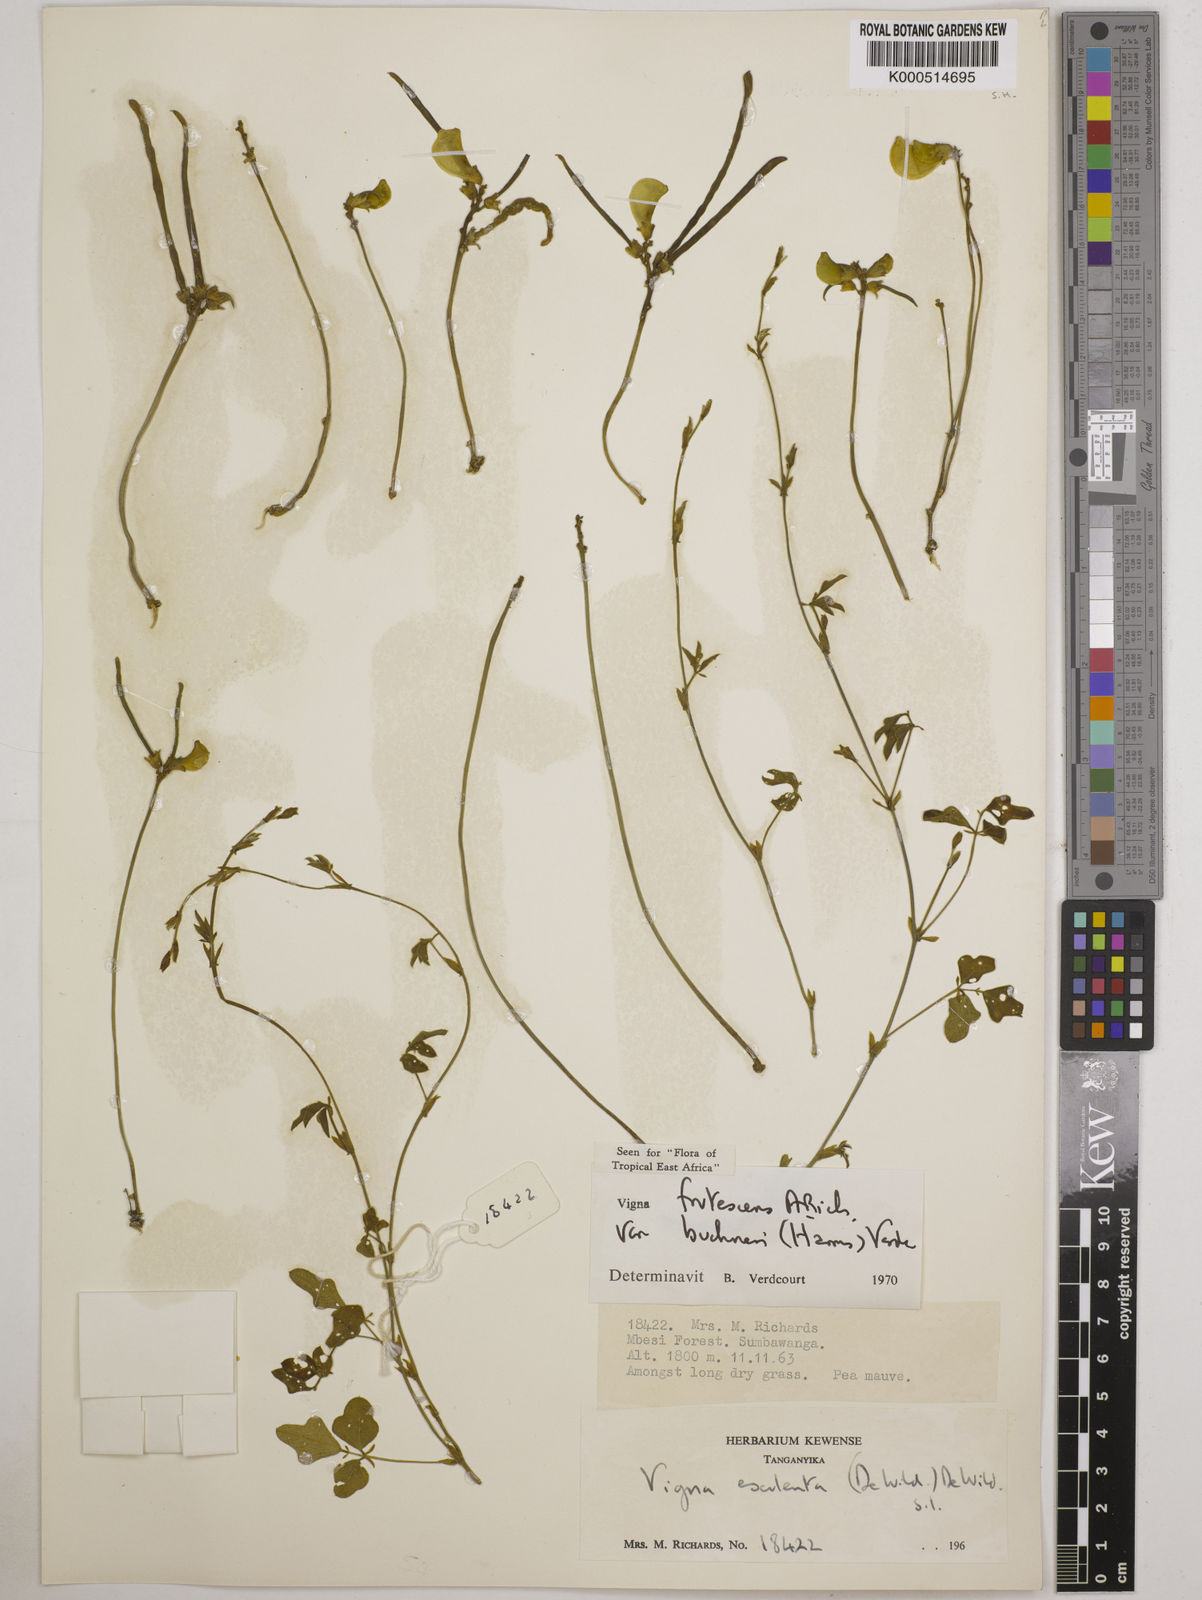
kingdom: Plantae
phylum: Tracheophyta
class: Magnoliopsida
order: Fabales
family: Fabaceae
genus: Vigna
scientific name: Vigna
